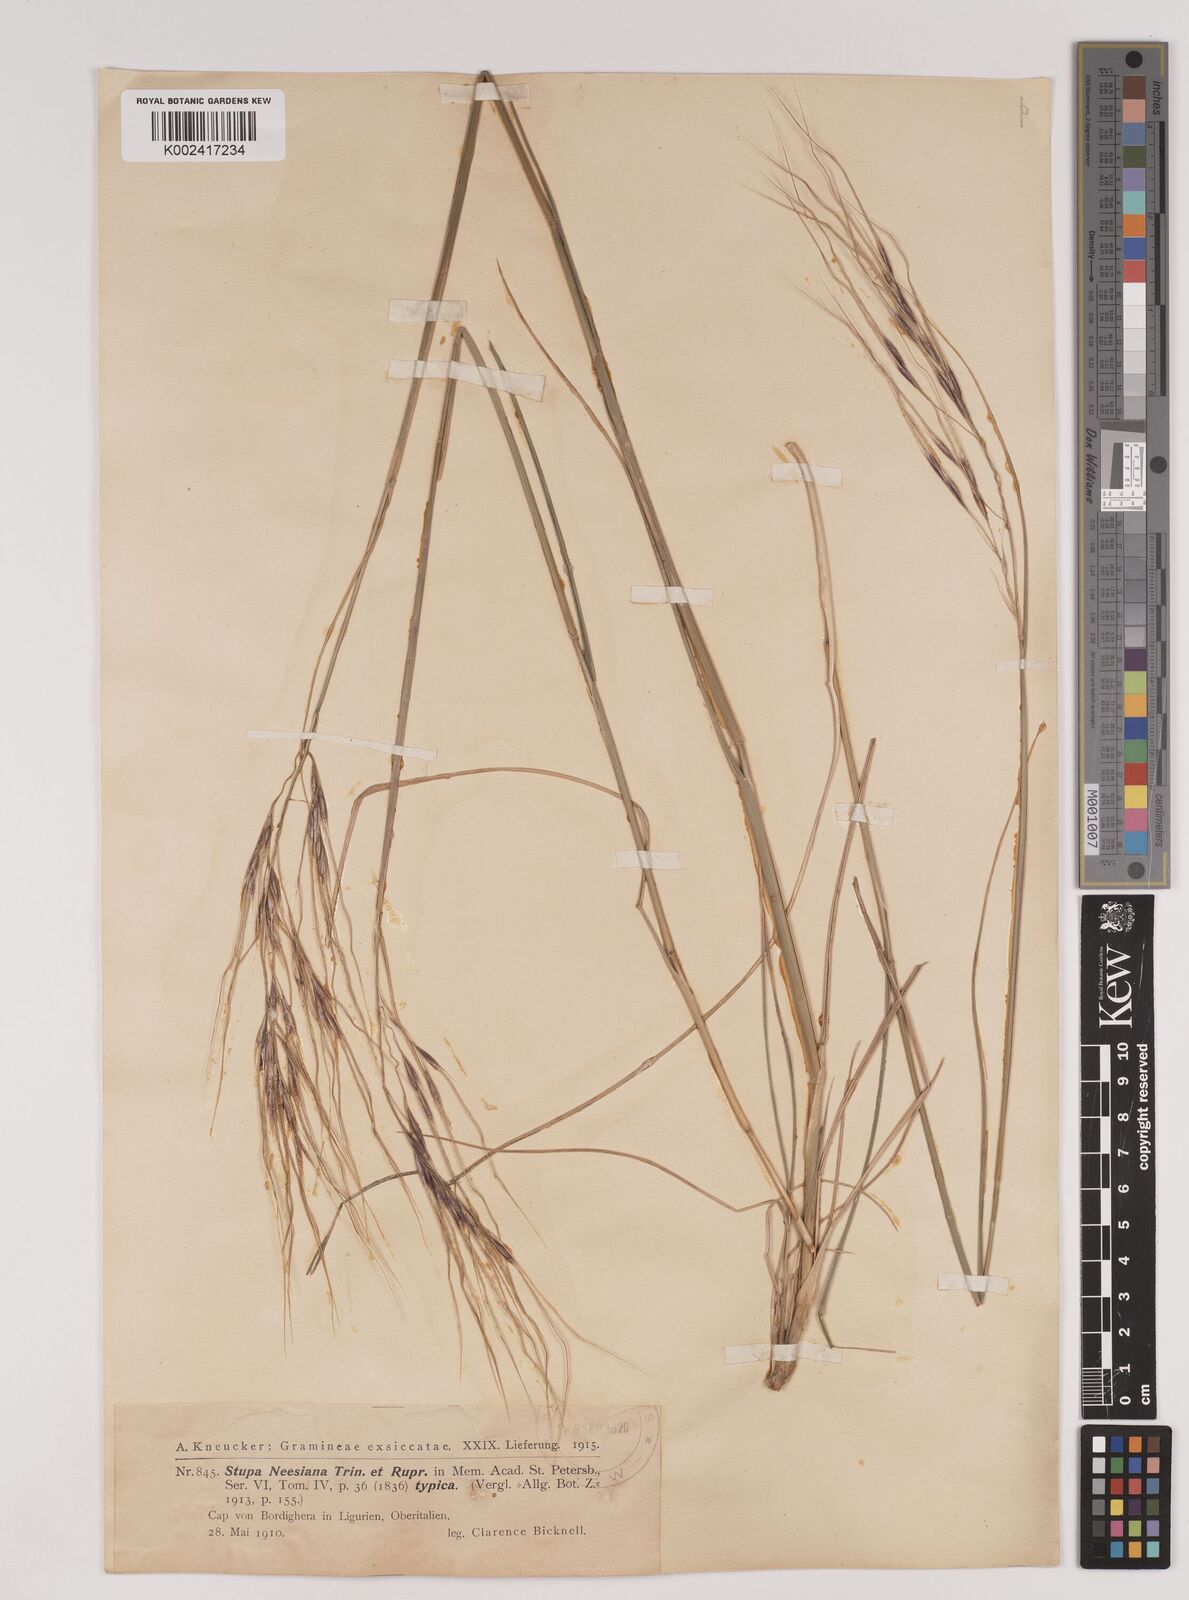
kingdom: Plantae
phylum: Tracheophyta
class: Liliopsida
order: Poales
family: Poaceae
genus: Nassella
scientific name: Nassella neesiana
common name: American needle-grass
